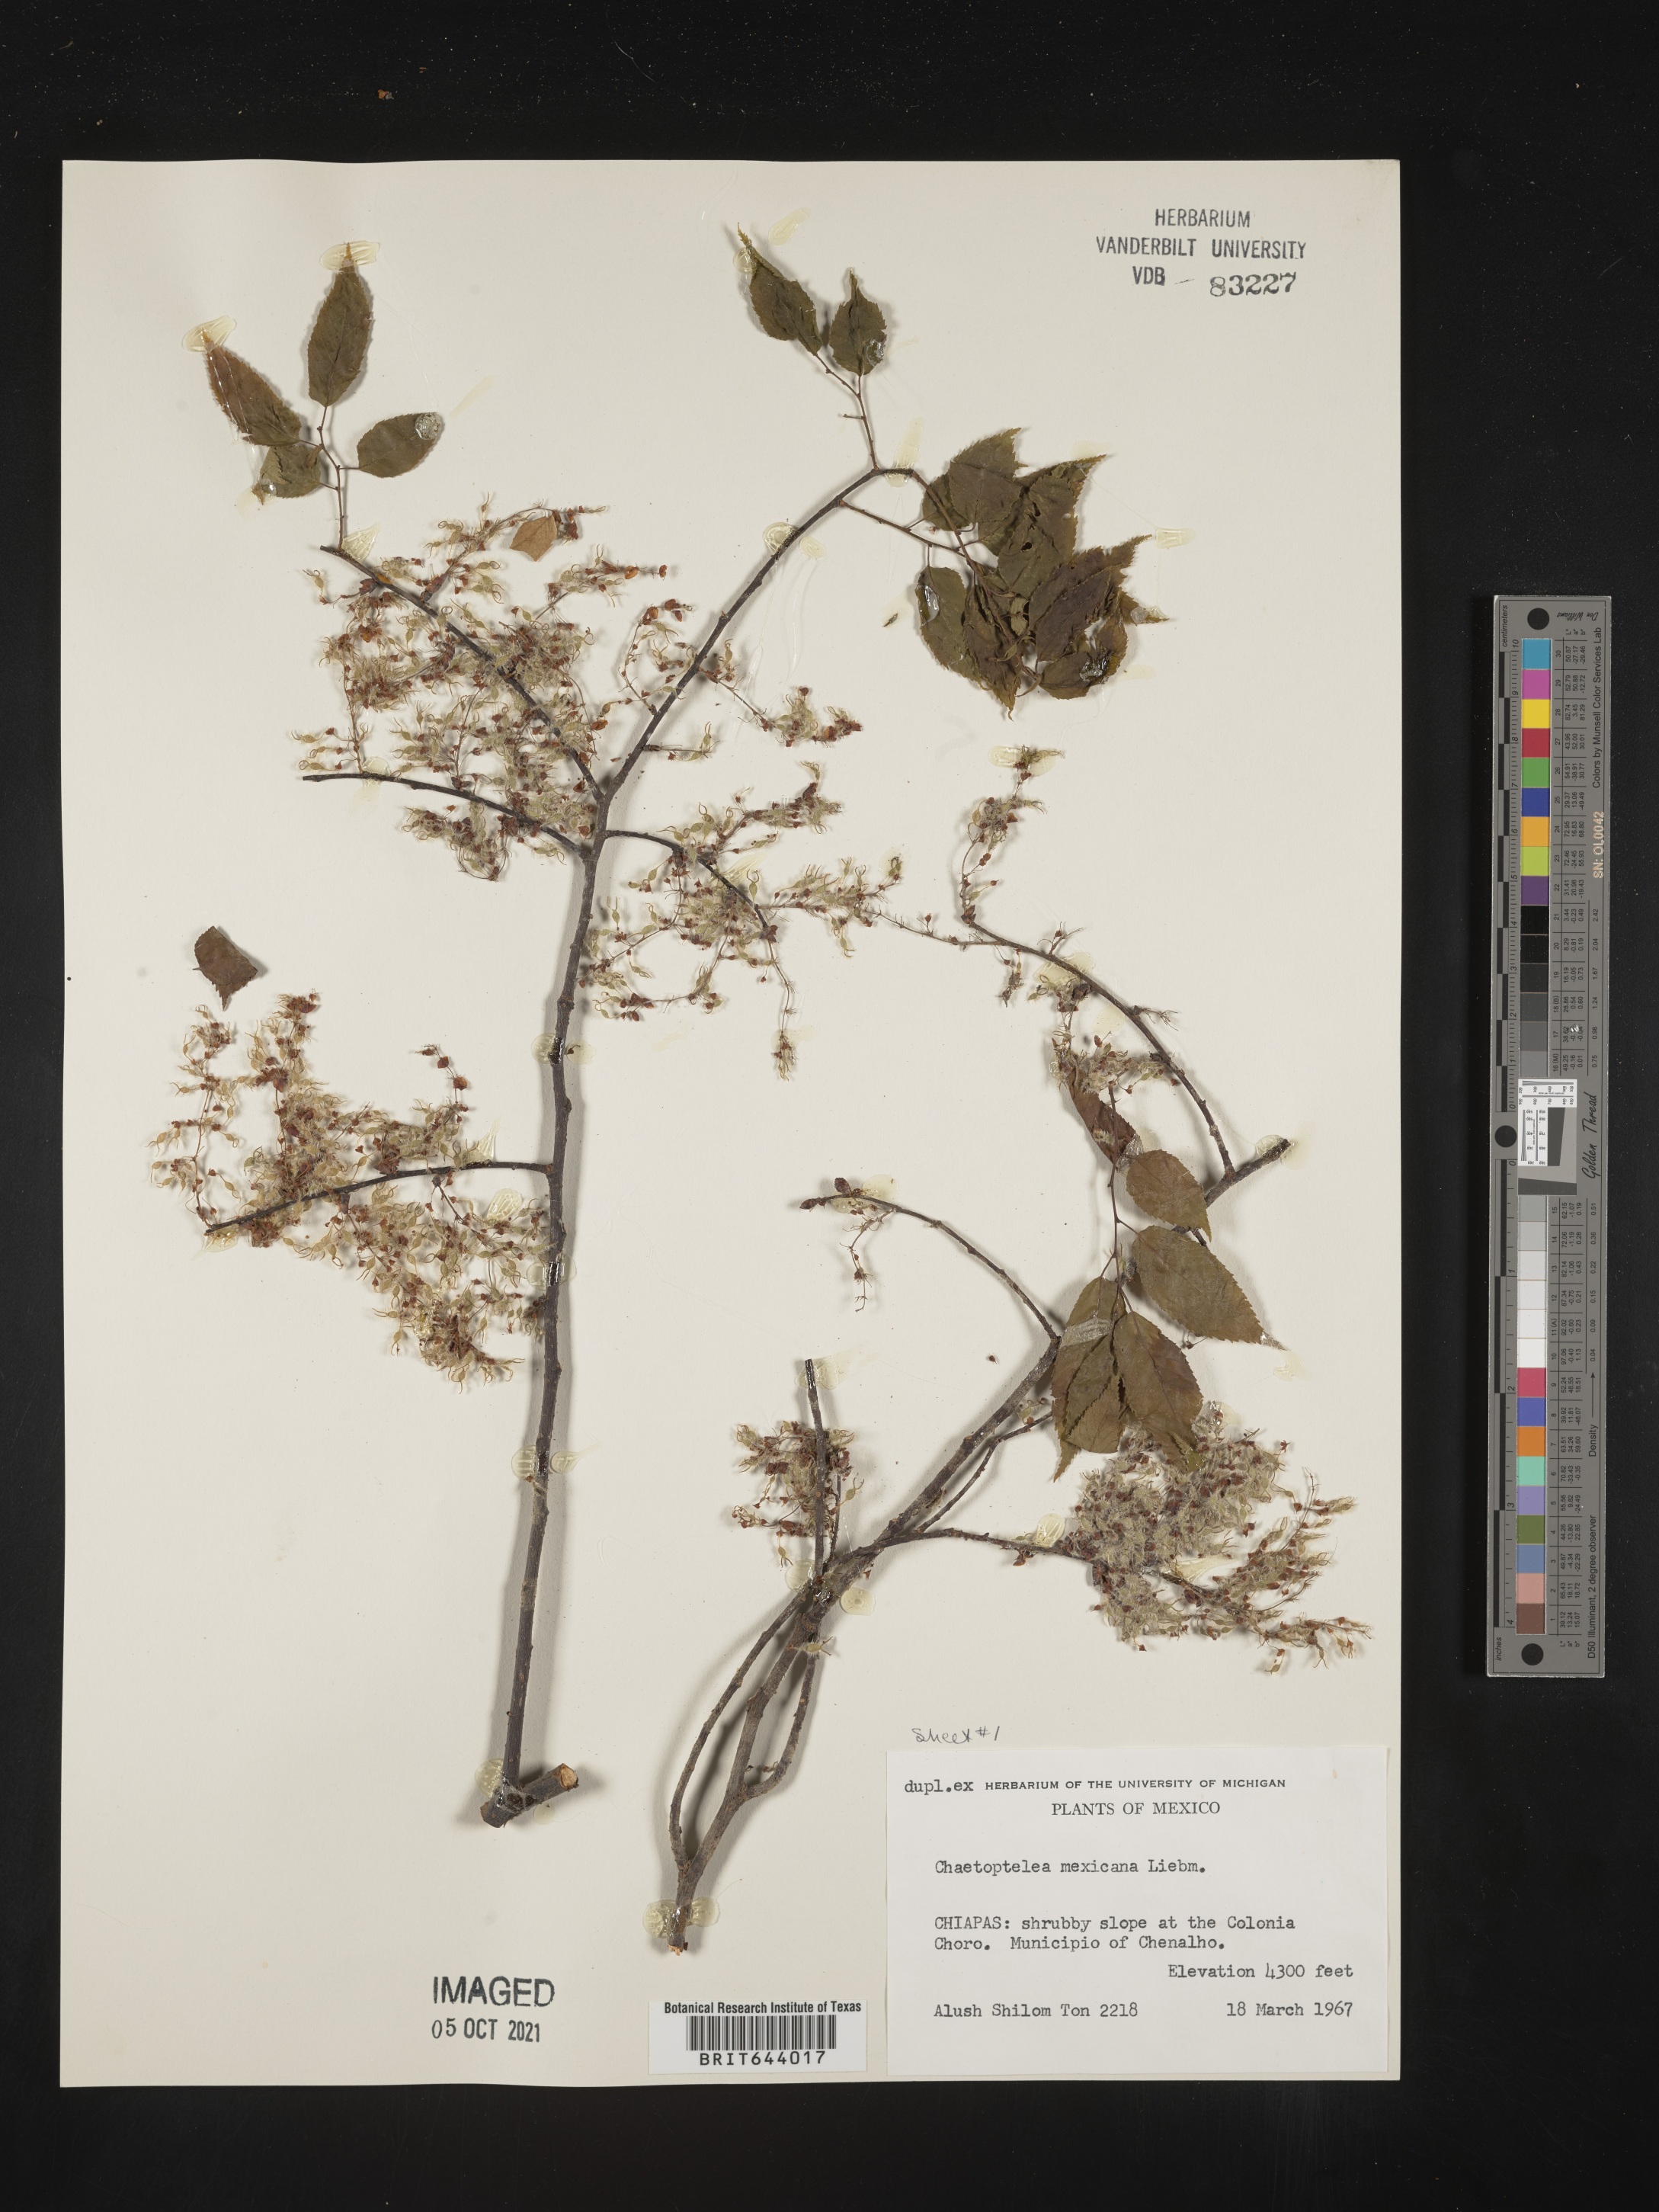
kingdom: Plantae
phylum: Tracheophyta
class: Magnoliopsida
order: Rosales
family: Ulmaceae
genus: Ulmus
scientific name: Ulmus
